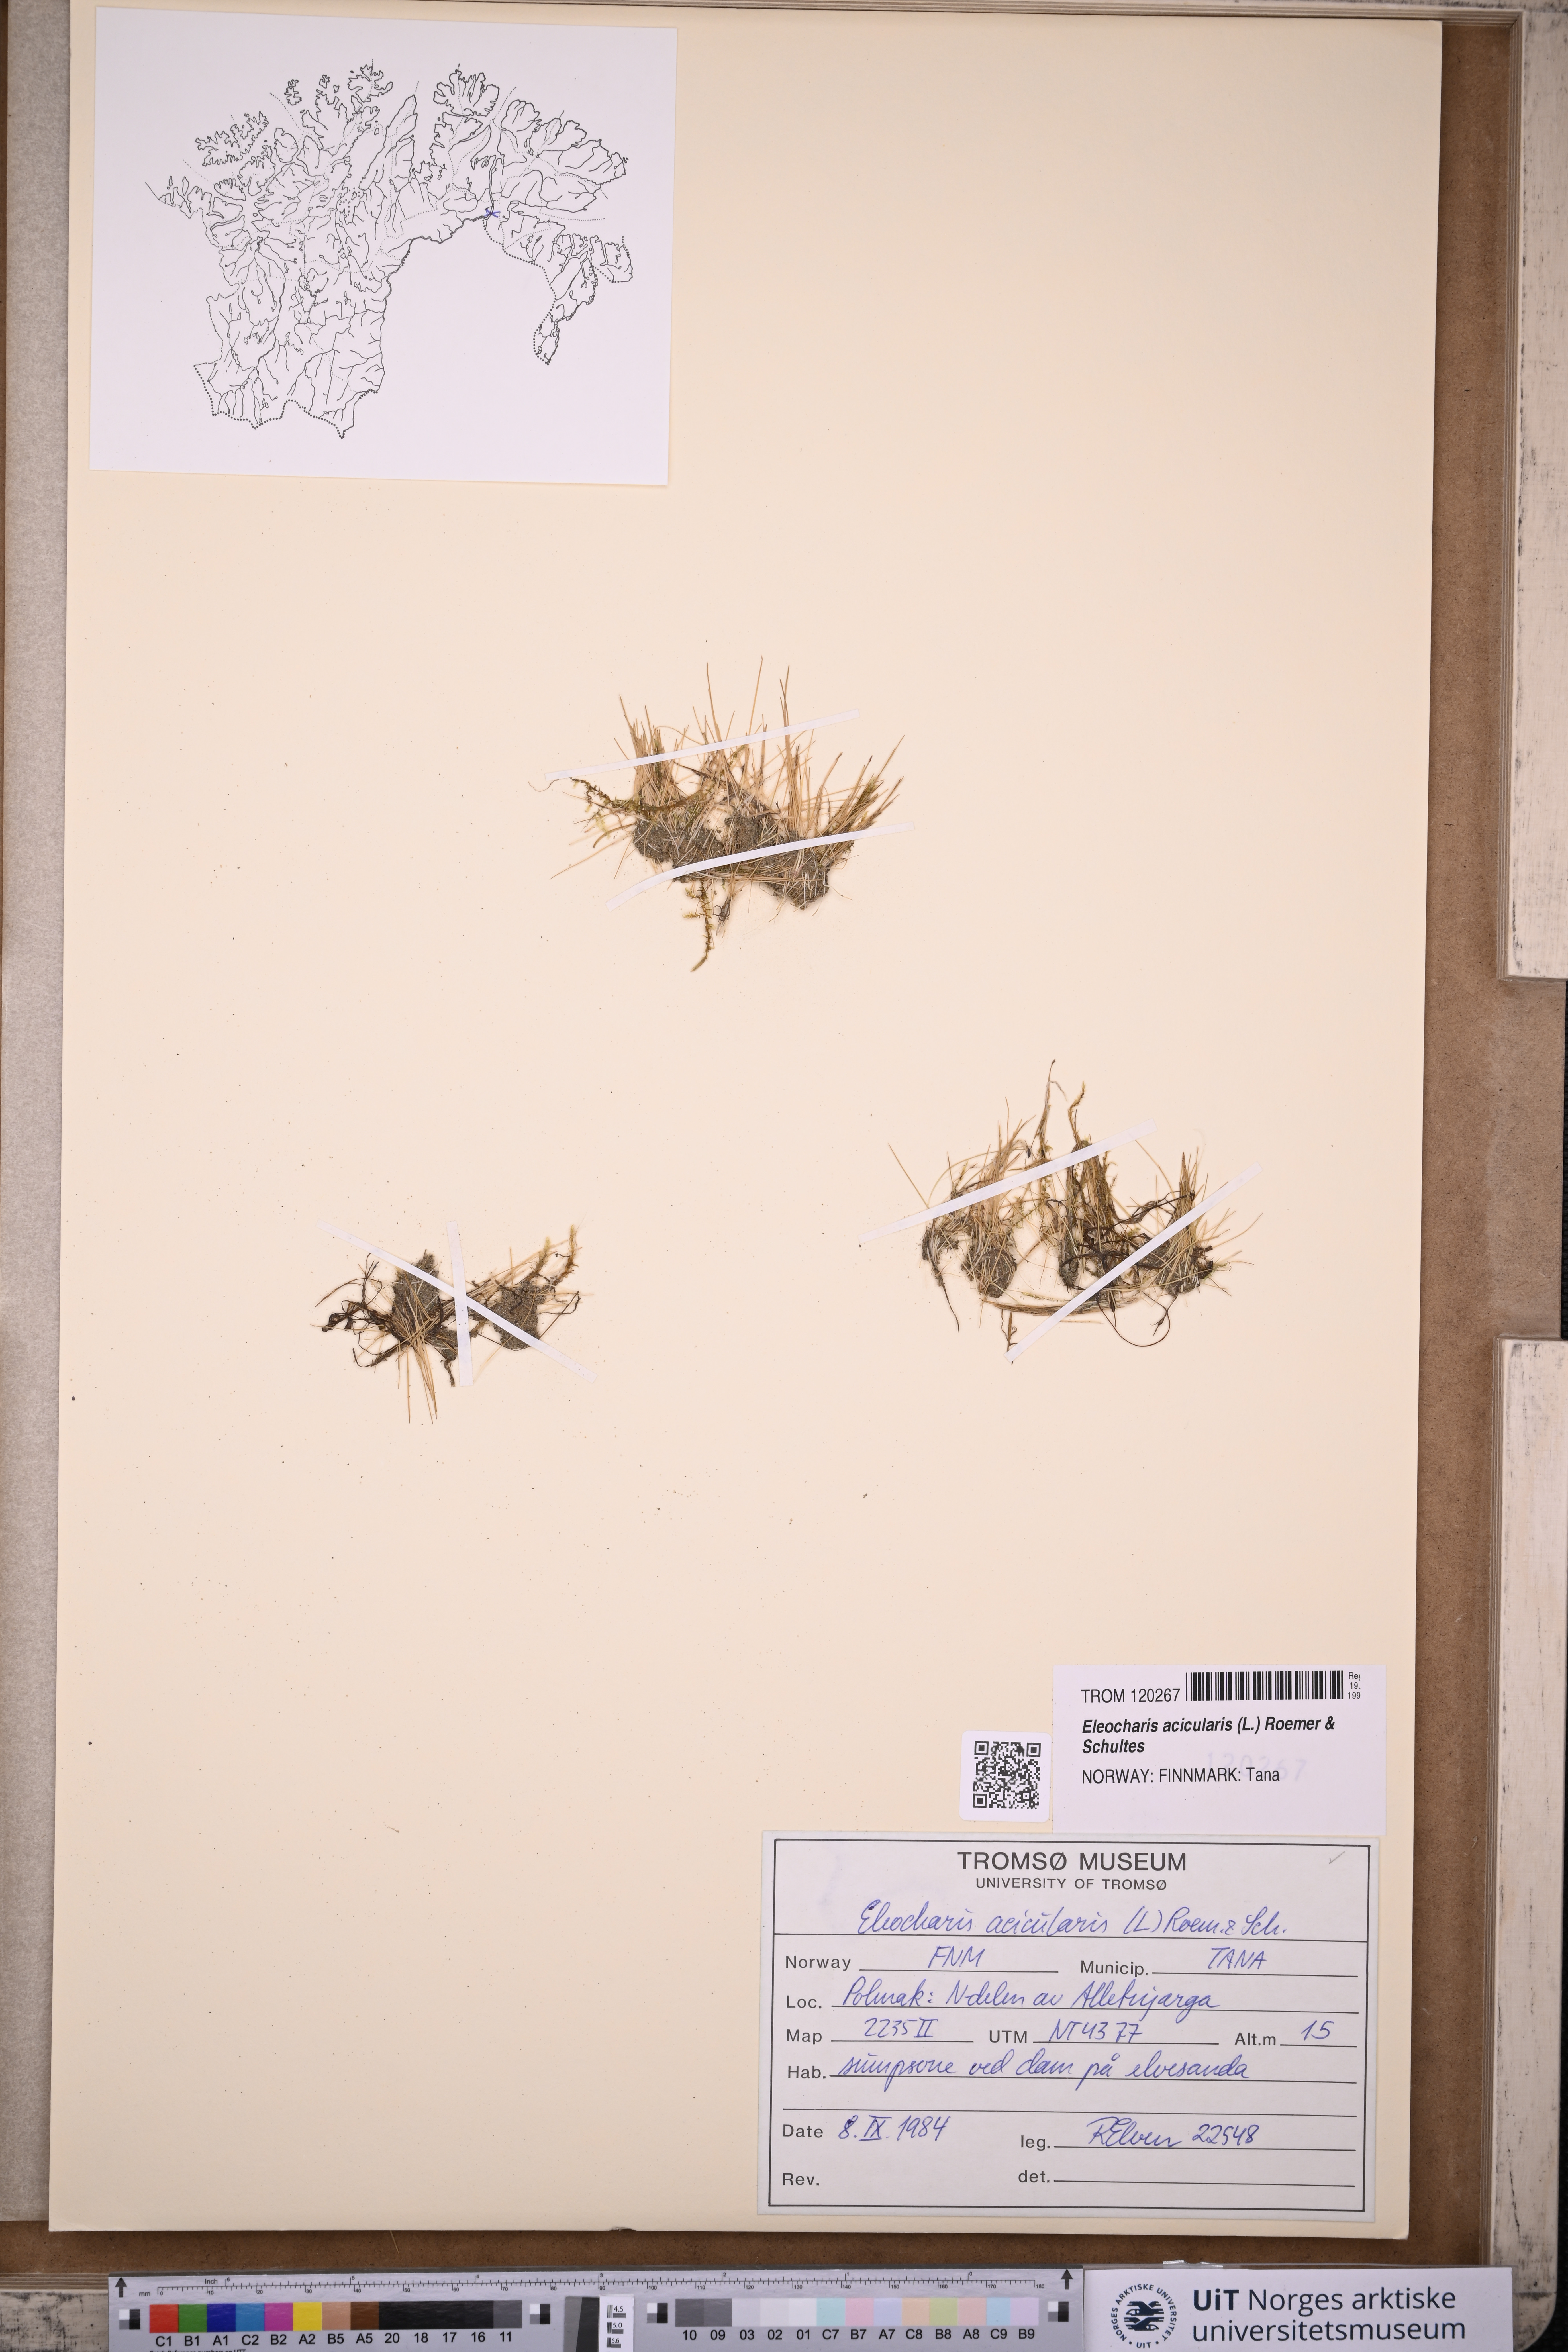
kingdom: Plantae
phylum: Tracheophyta
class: Liliopsida
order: Poales
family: Cyperaceae
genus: Eleocharis
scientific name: Eleocharis acicularis
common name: Needle spike-rush
